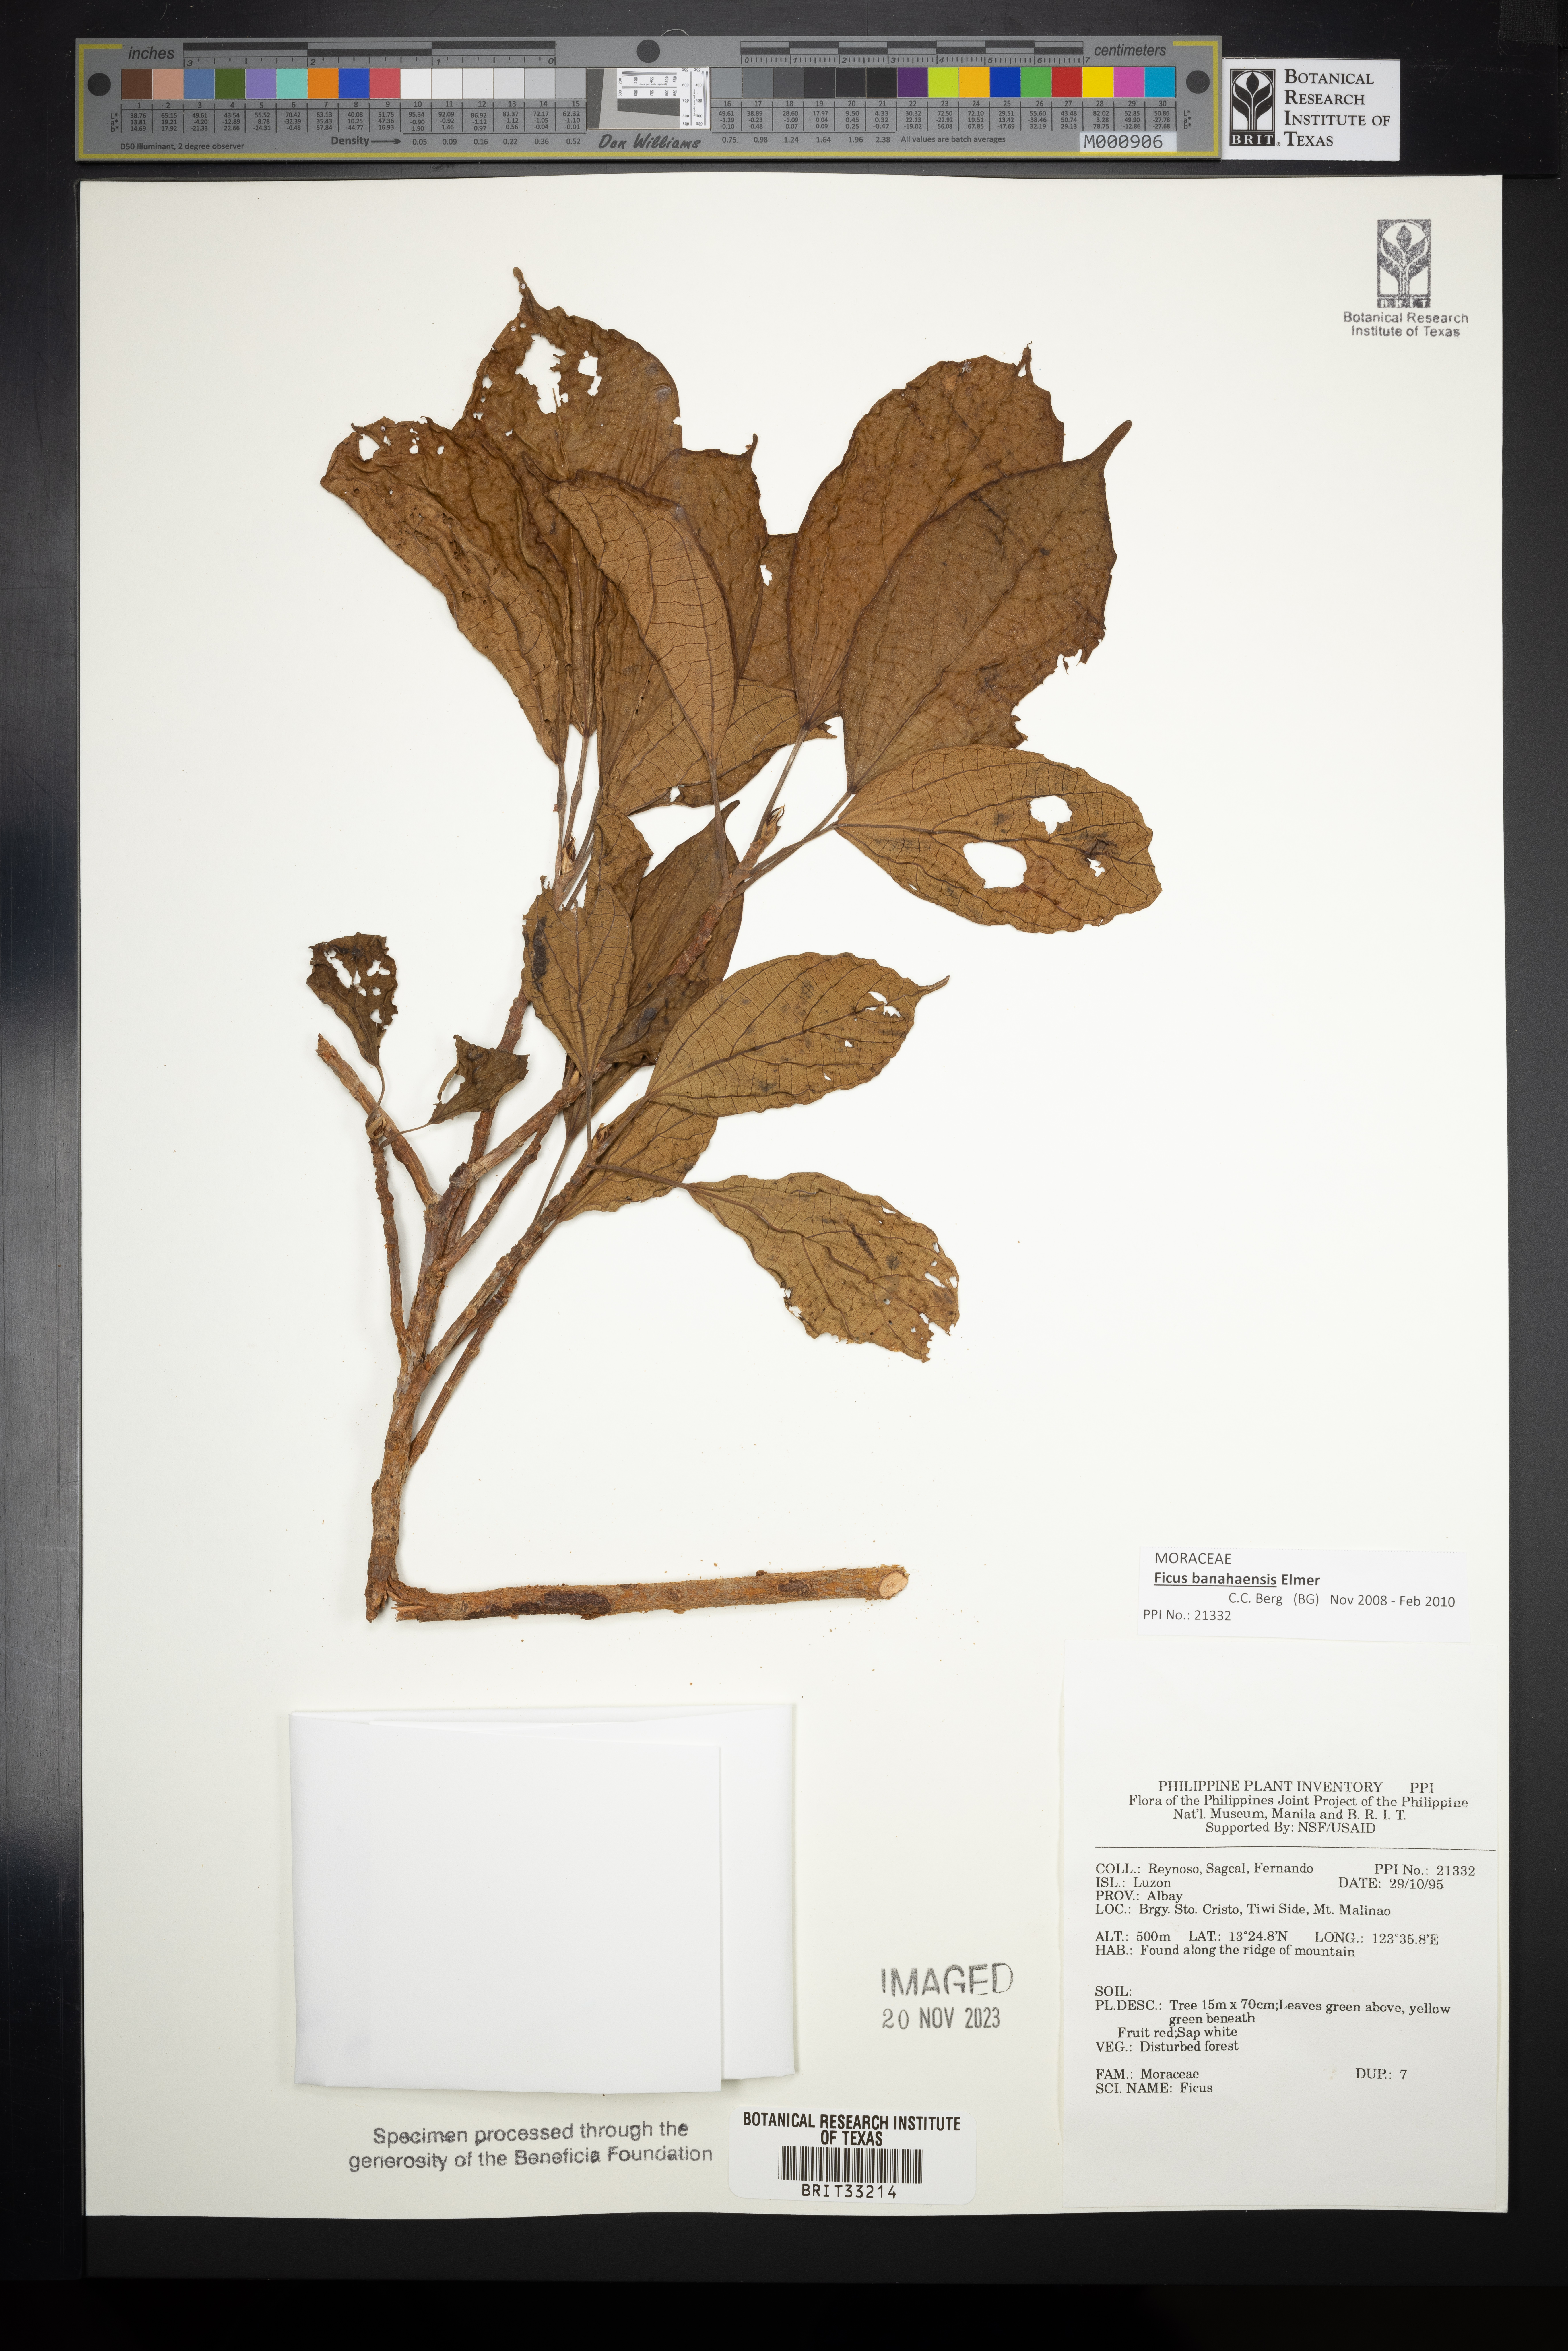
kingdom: Plantae
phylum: Tracheophyta
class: Magnoliopsida
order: Rosales
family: Moraceae
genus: Ficus
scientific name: Ficus
